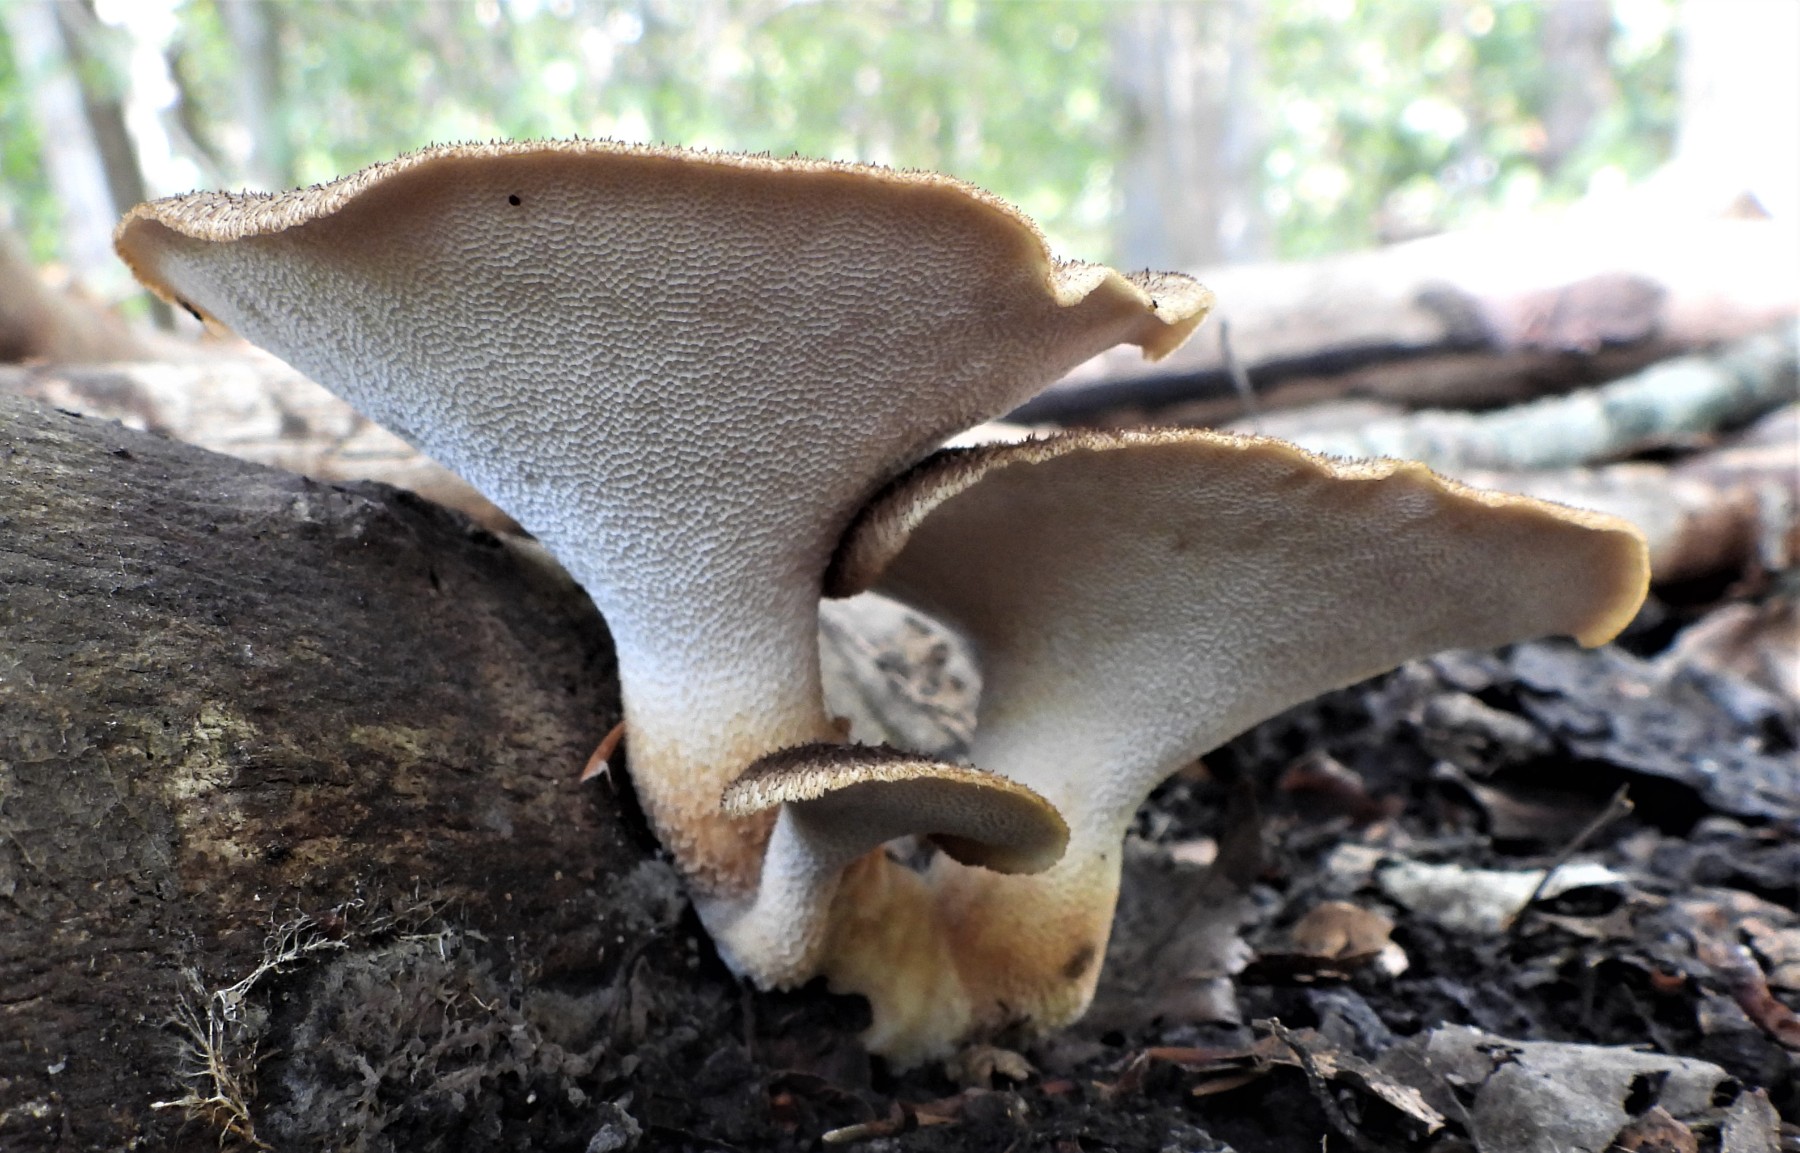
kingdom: Fungi
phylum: Basidiomycota
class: Agaricomycetes
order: Polyporales
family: Polyporaceae
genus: Cerioporus
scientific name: Cerioporus squamosus
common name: skællet stilkporesvamp
